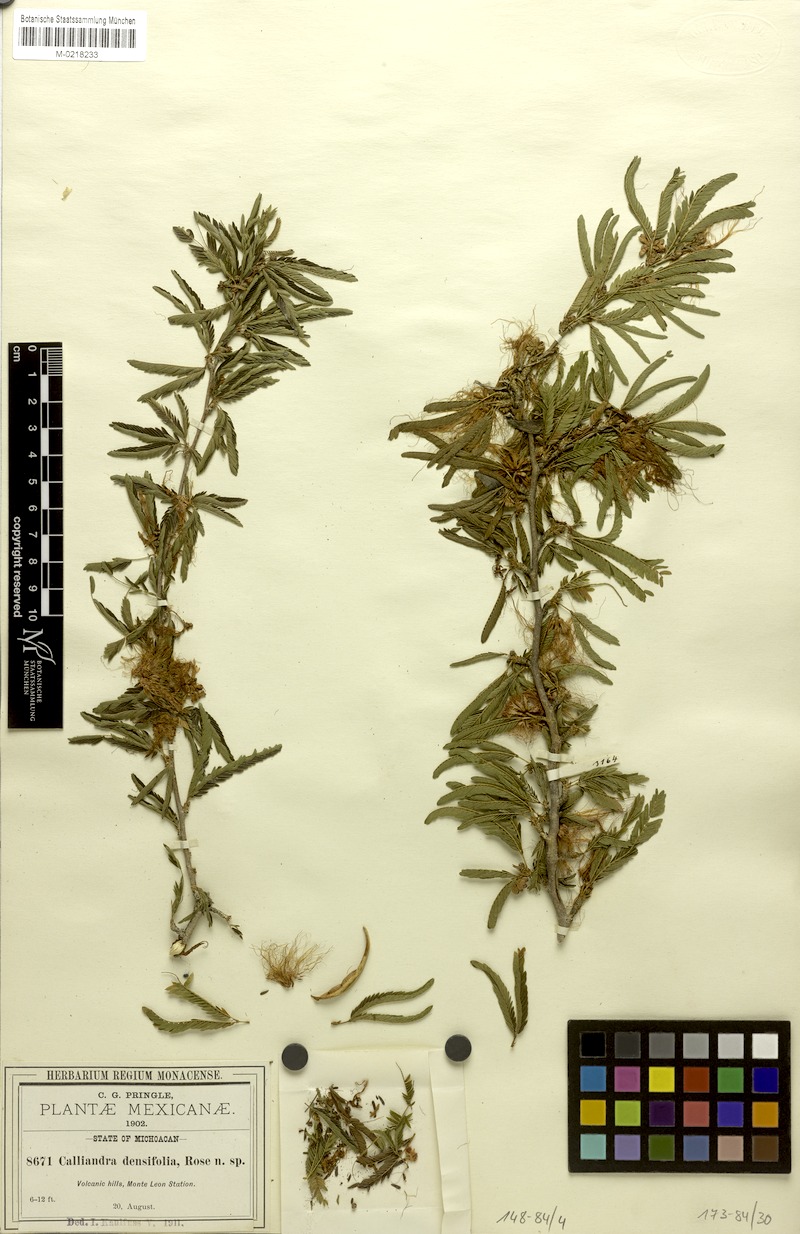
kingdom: Plantae
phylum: Tracheophyta
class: Magnoliopsida
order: Fabales
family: Fabaceae
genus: Calliandra
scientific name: Calliandra caeciliae
